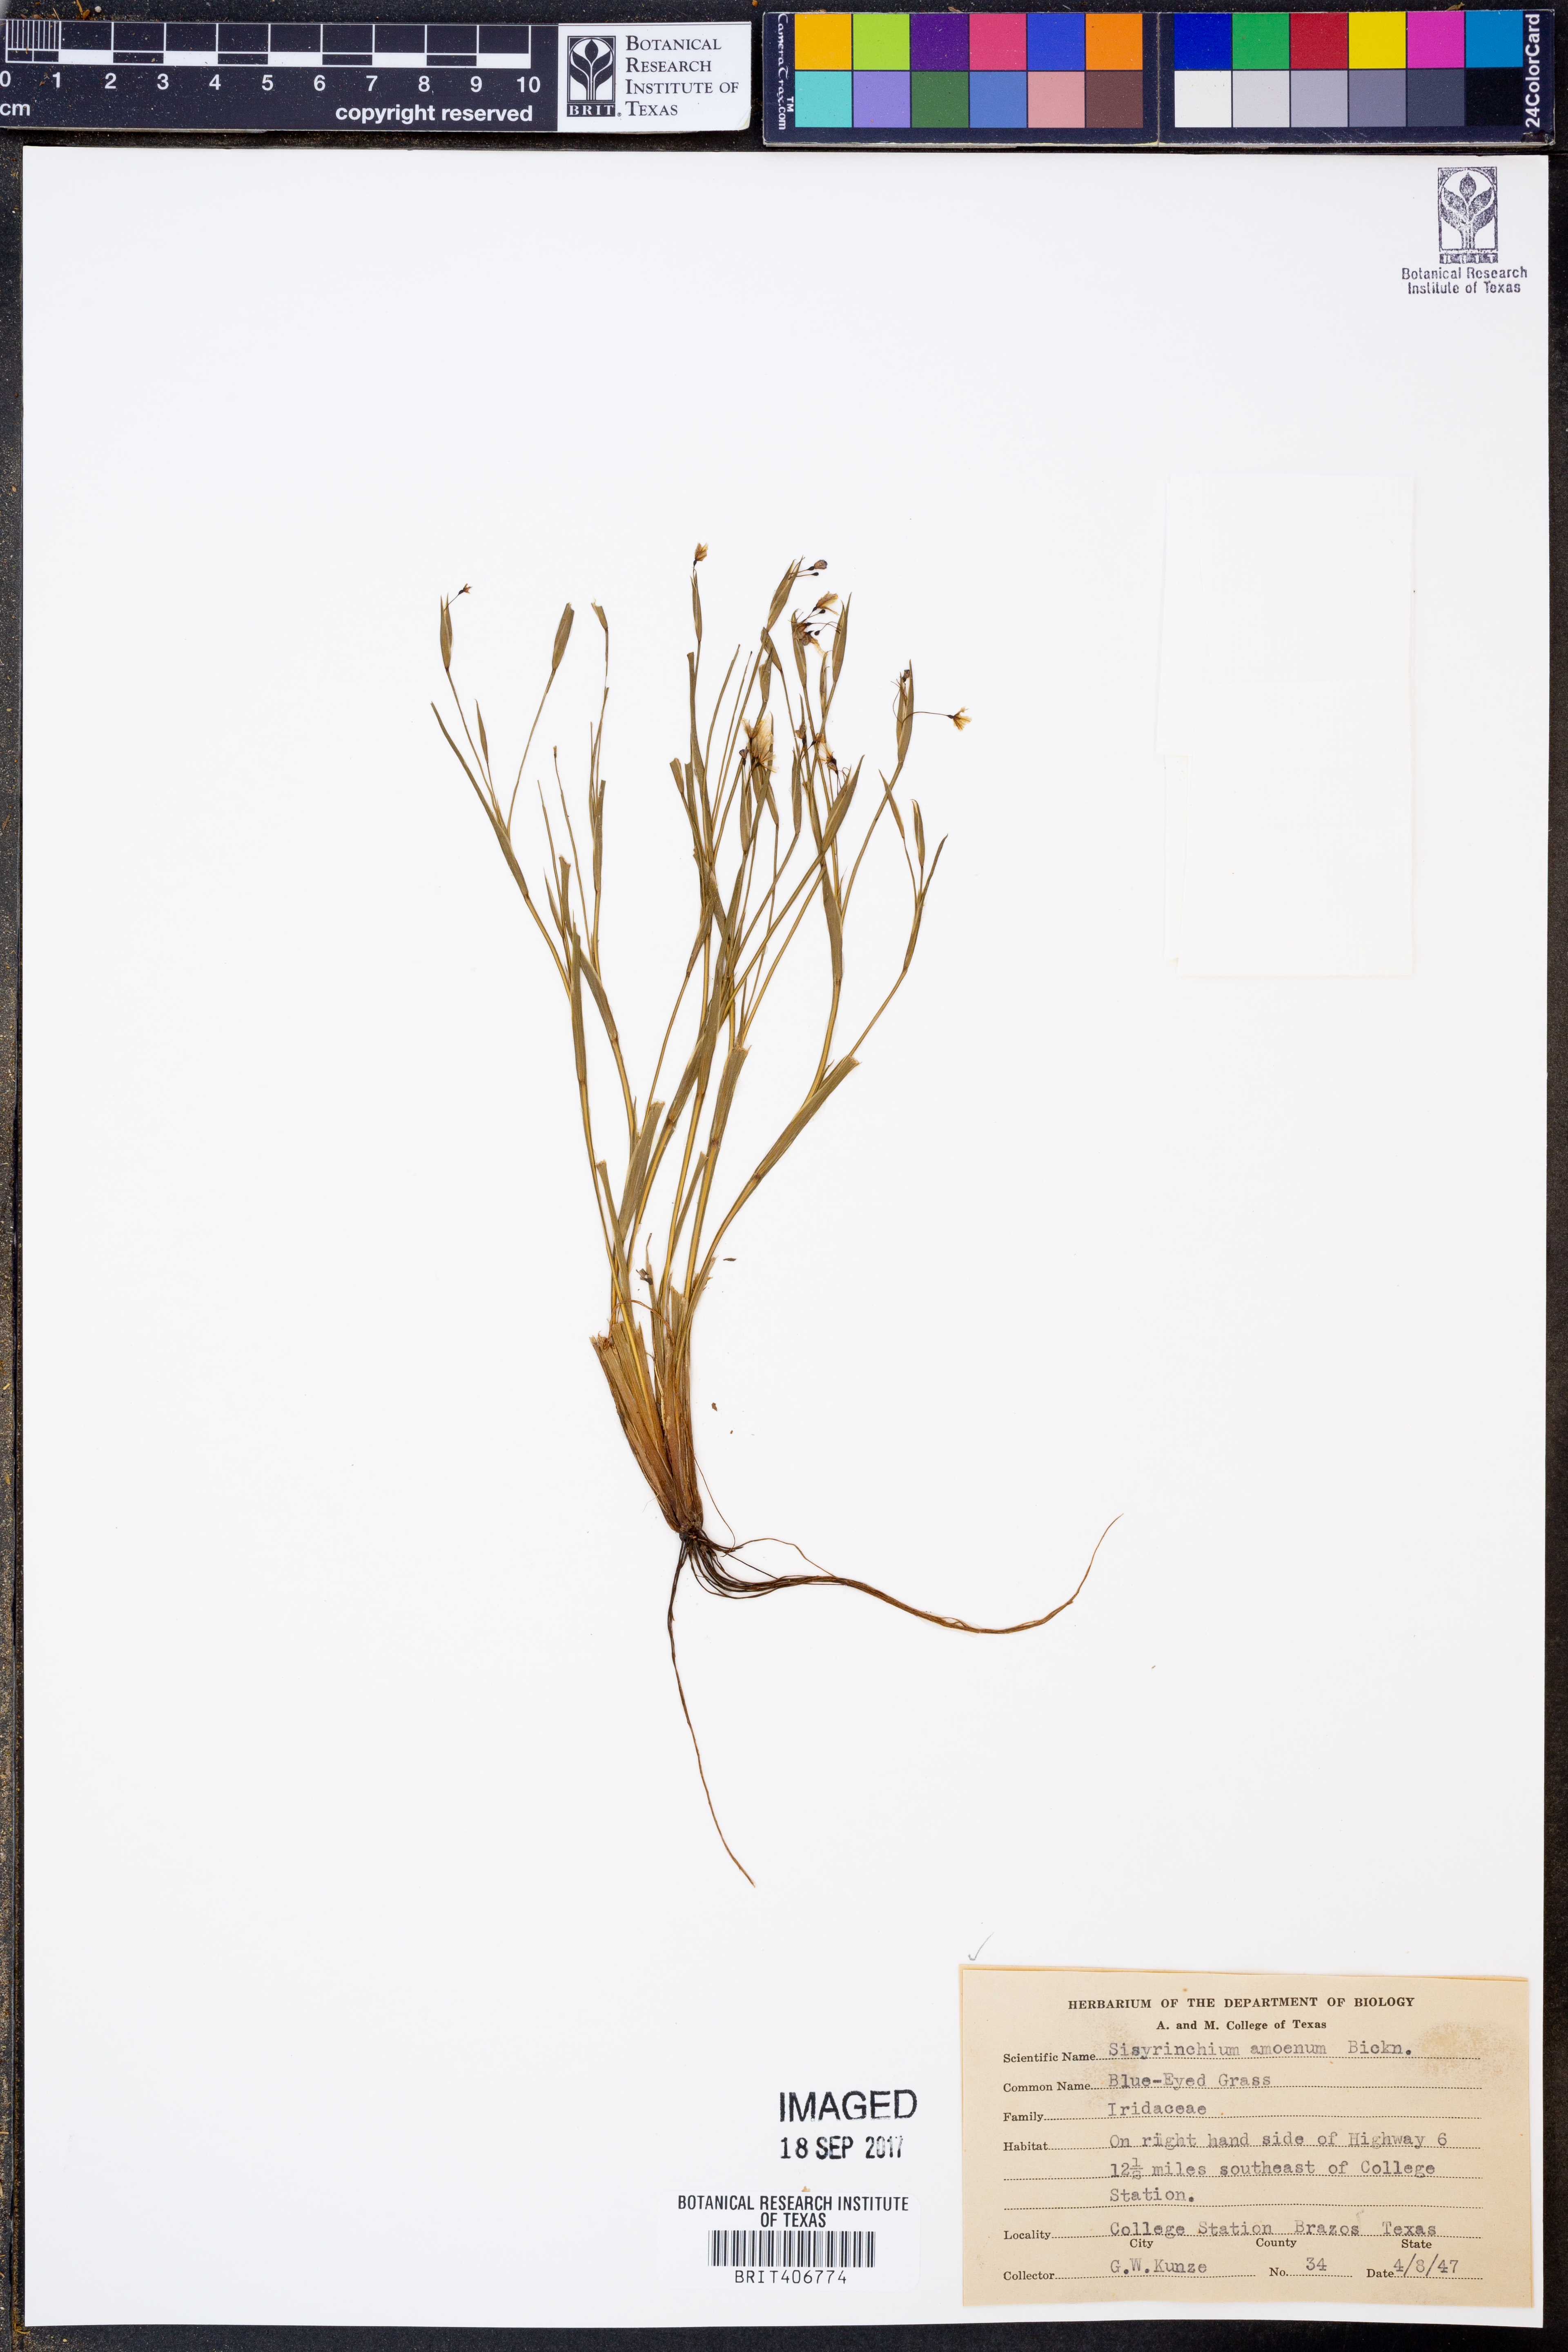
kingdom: Plantae
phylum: Tracheophyta
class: Liliopsida
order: Asparagales
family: Iridaceae
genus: Sisyrinchium
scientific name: Sisyrinchium ensigerum
